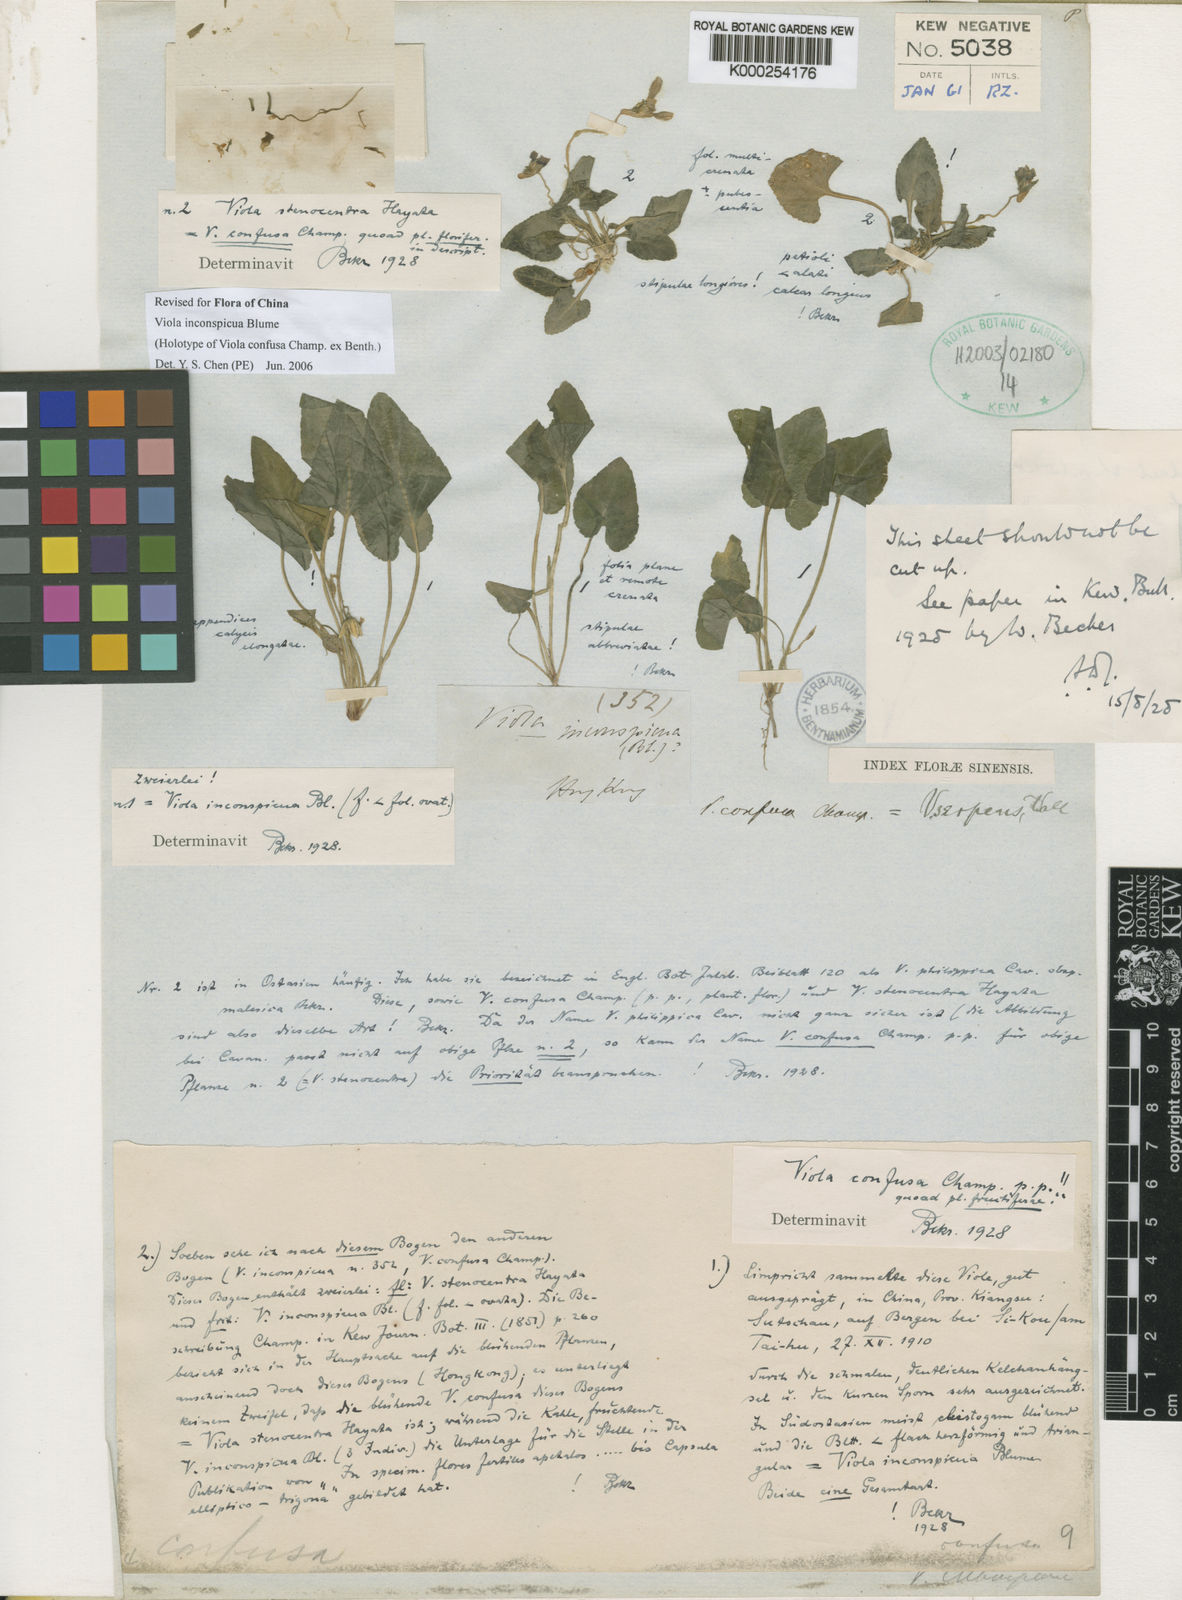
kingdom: Plantae
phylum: Tracheophyta
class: Magnoliopsida
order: Malpighiales
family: Violaceae
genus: Viola
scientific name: Viola inconspicua
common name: Long sepal violet
